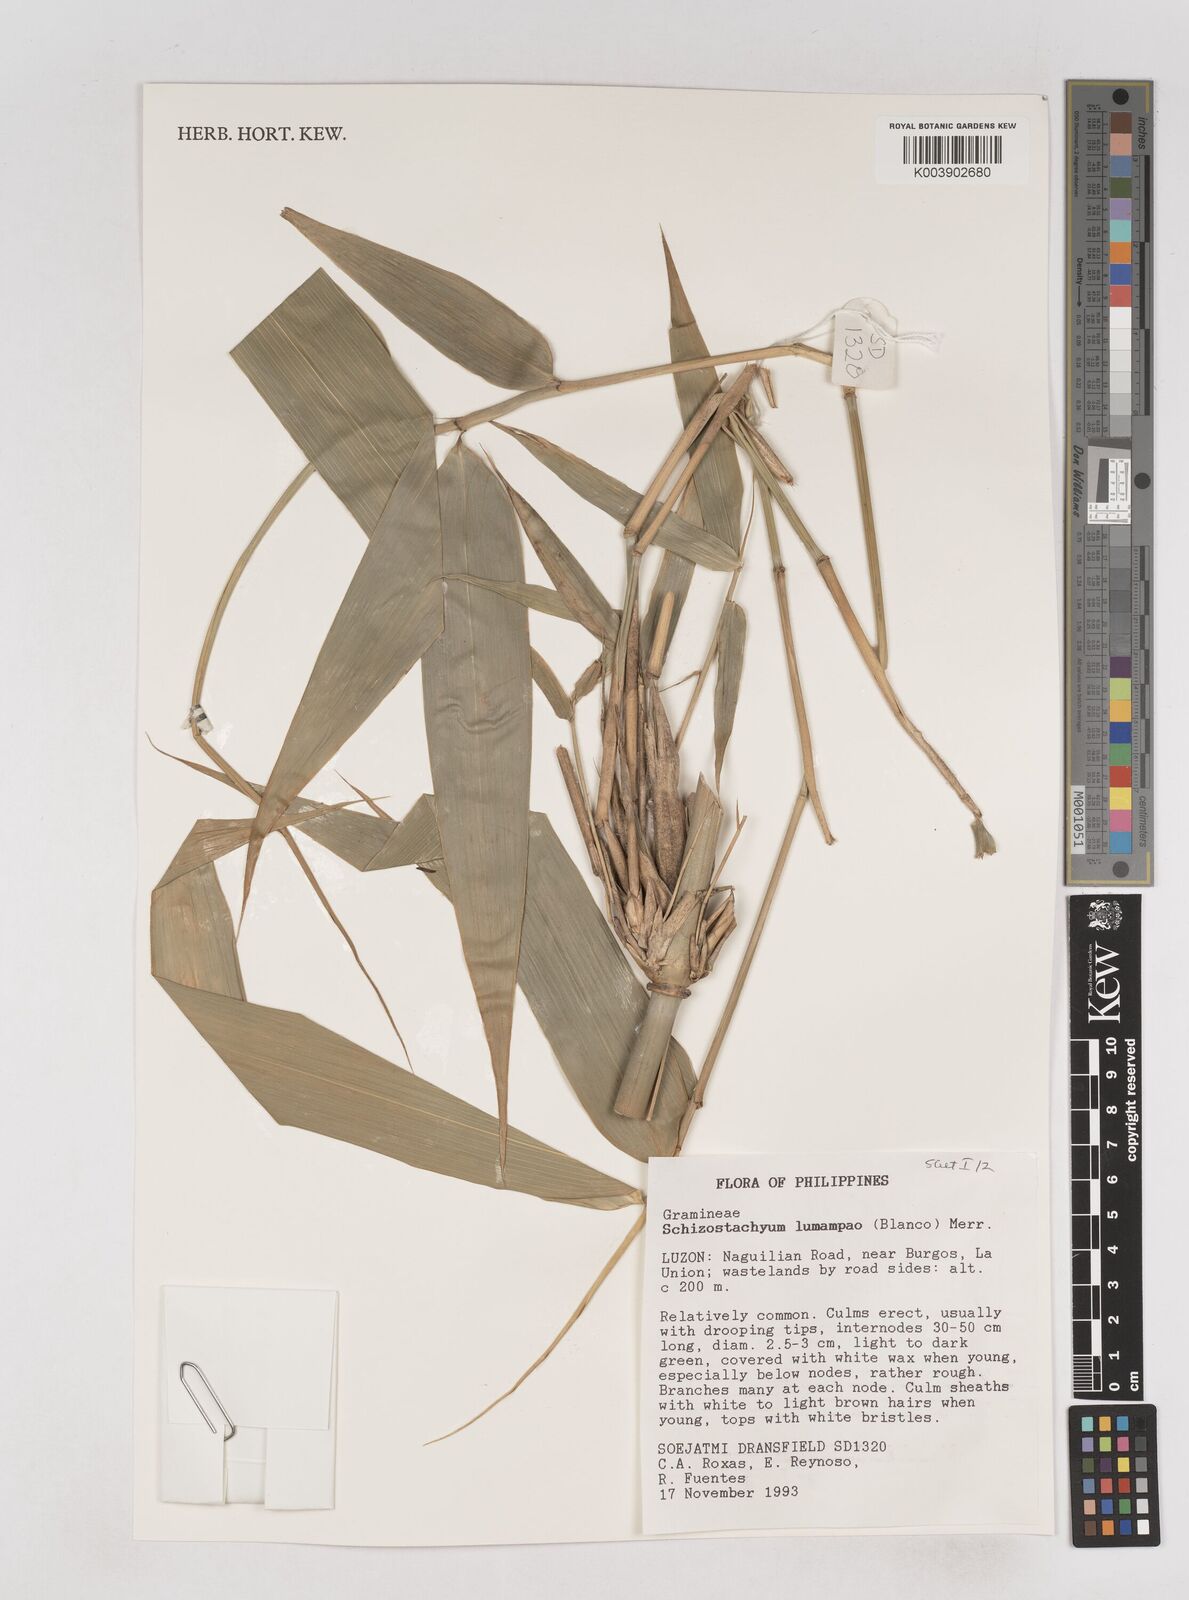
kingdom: Plantae
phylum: Tracheophyta
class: Liliopsida
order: Poales
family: Poaceae
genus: Schizostachyum
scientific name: Schizostachyum lumampao
